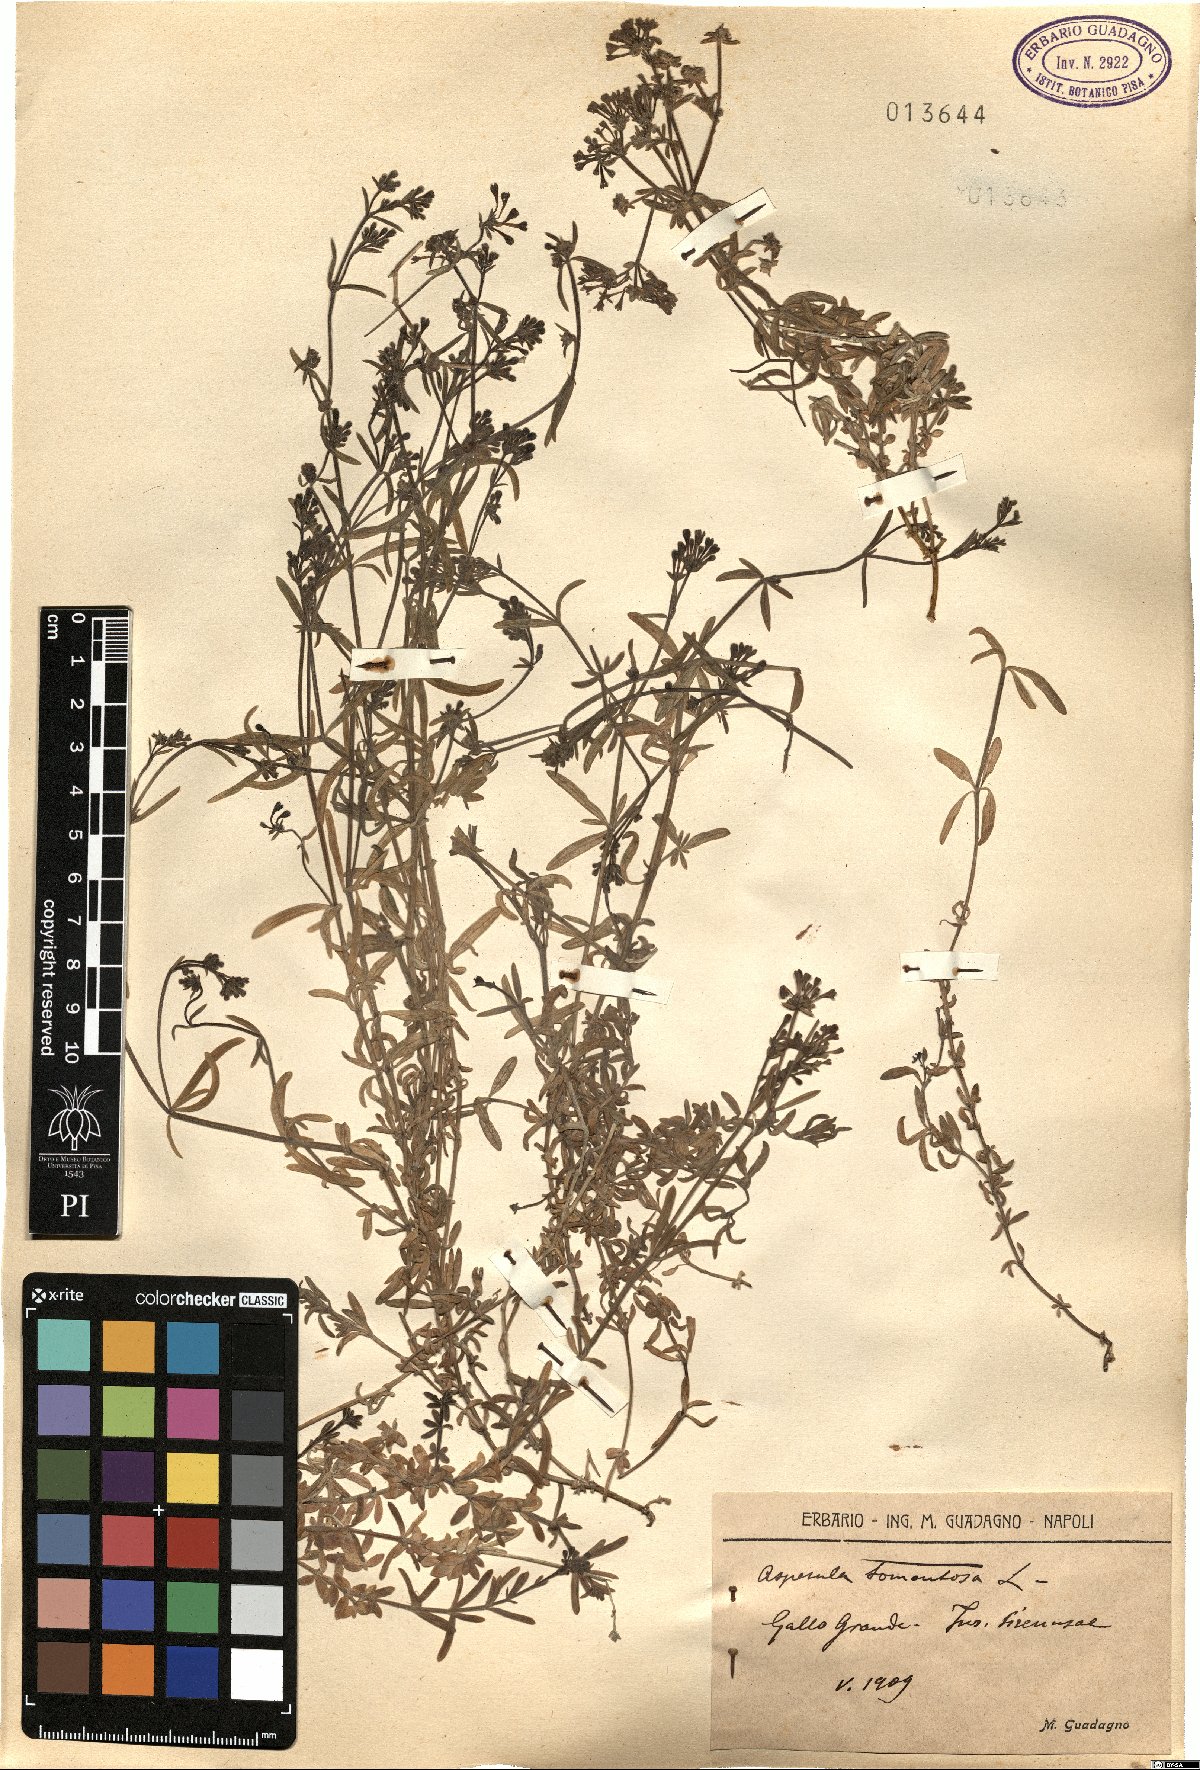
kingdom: Plantae
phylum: Tracheophyta
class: Magnoliopsida
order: Gentianales
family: Rubiaceae
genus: Cynanchica
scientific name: Cynanchica crassifolia
